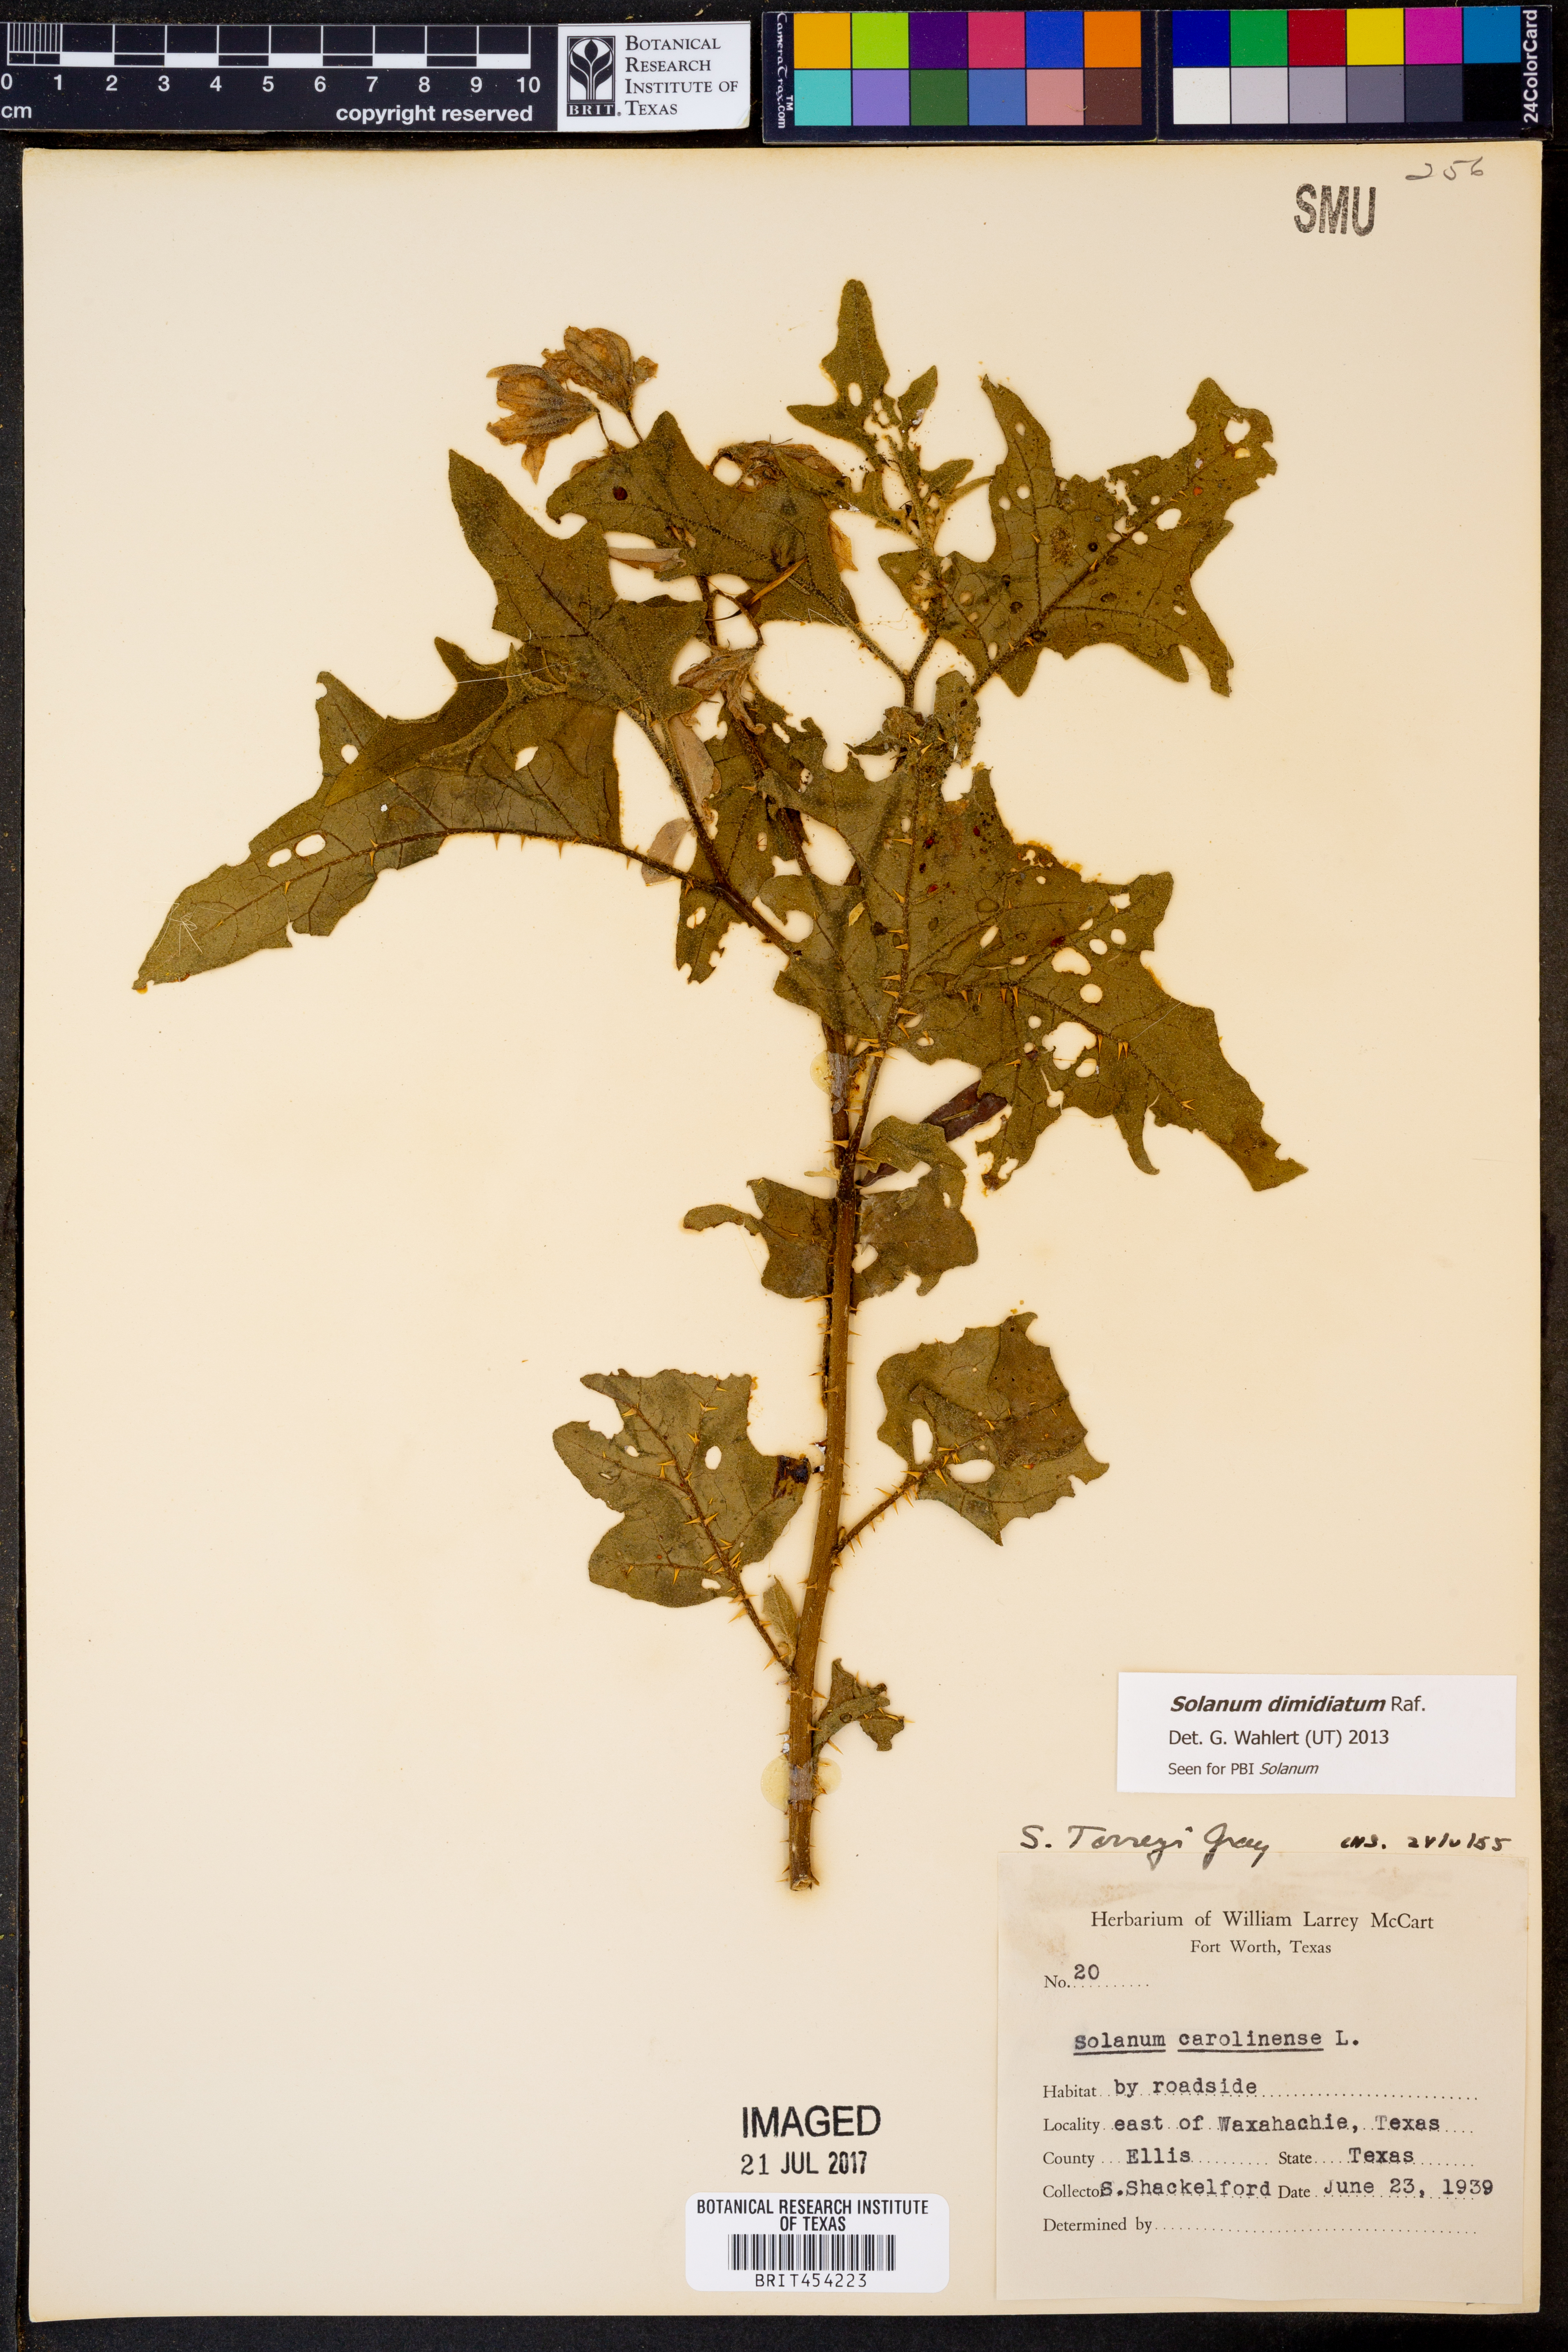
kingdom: Plantae
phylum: Tracheophyta
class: Magnoliopsida
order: Solanales
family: Solanaceae
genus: Solanum
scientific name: Solanum dimidiatum
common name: Carolina horse-nettle
